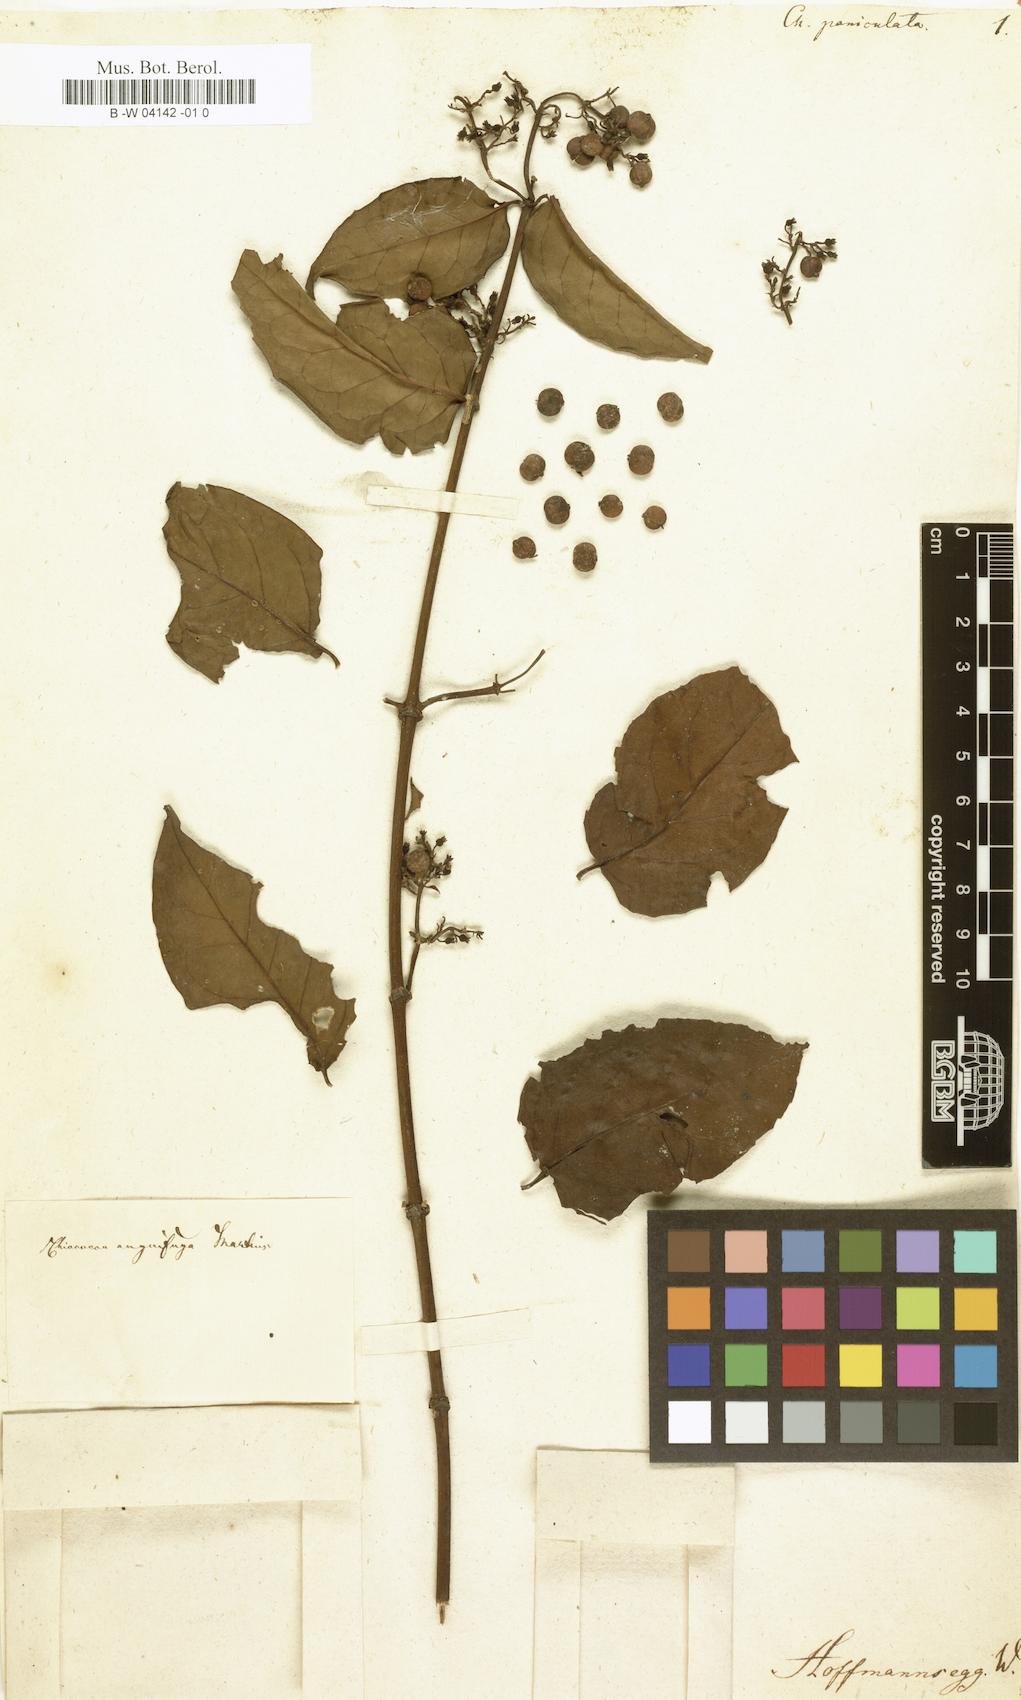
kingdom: Plantae
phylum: Tracheophyta
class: Magnoliopsida
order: Gentianales
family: Rubiaceae
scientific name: Rubiaceae
